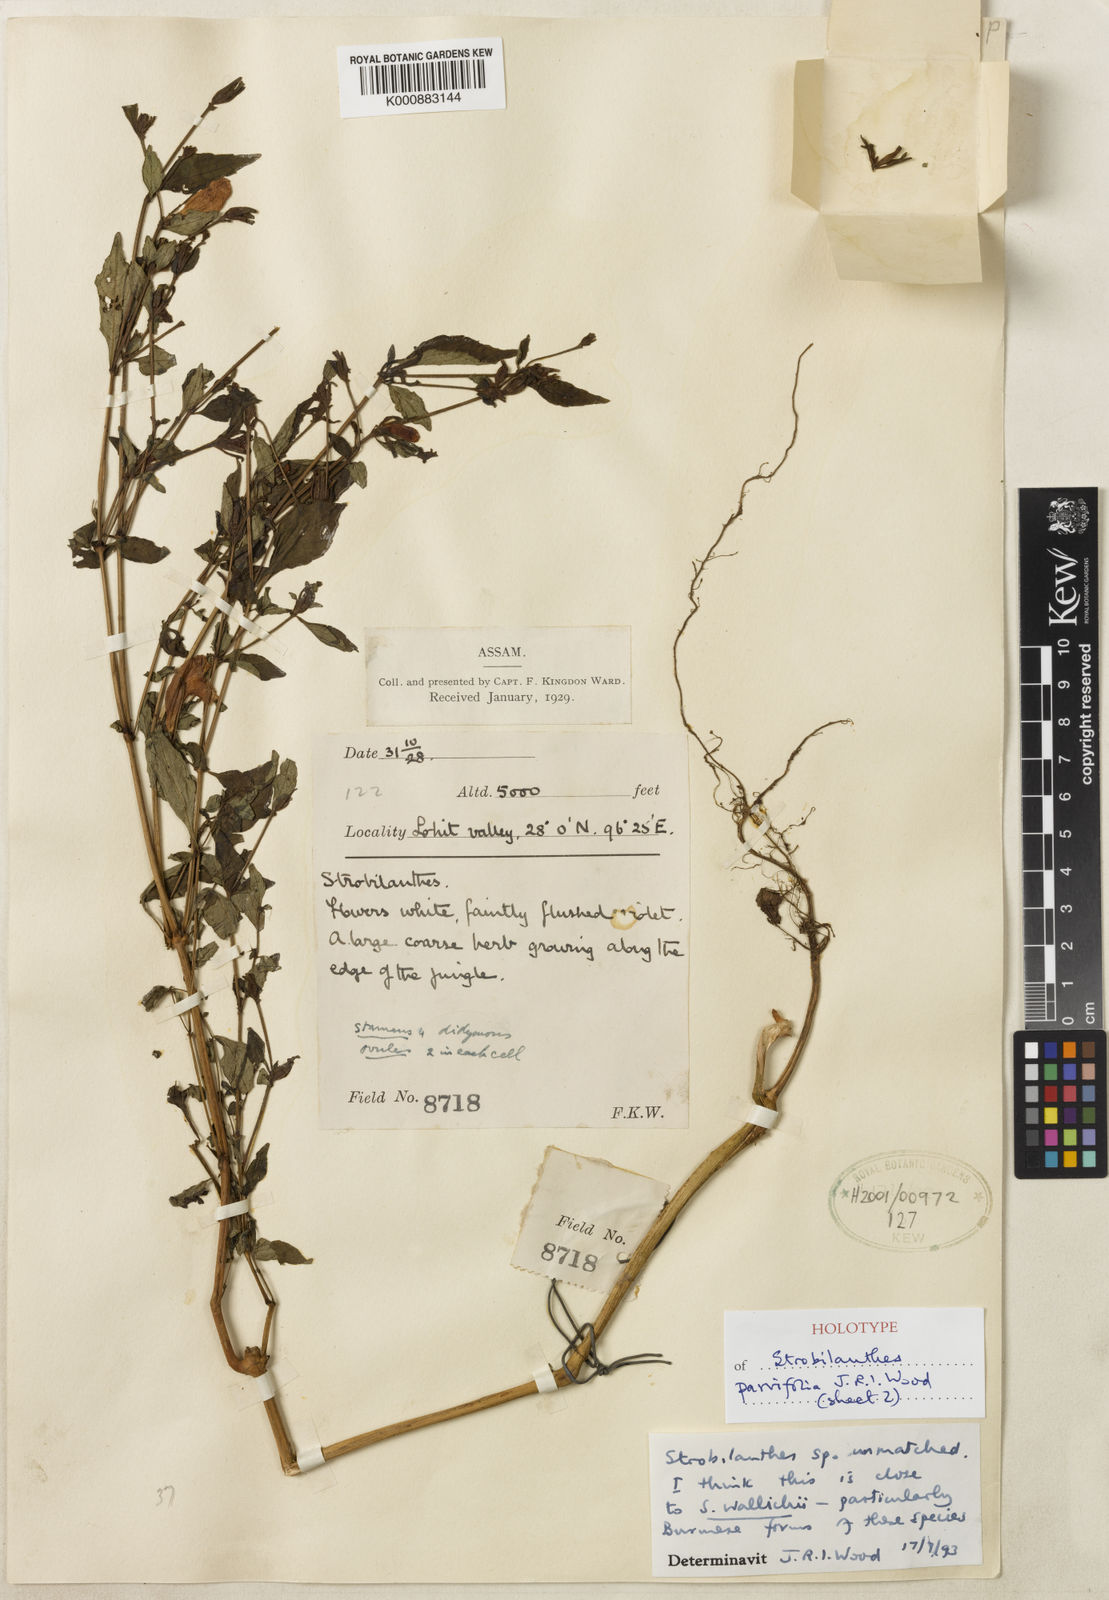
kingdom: Plantae
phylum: Tracheophyta
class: Magnoliopsida
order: Lamiales
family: Acanthaceae
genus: Strobilanthes
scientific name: Strobilanthes parvifolia
